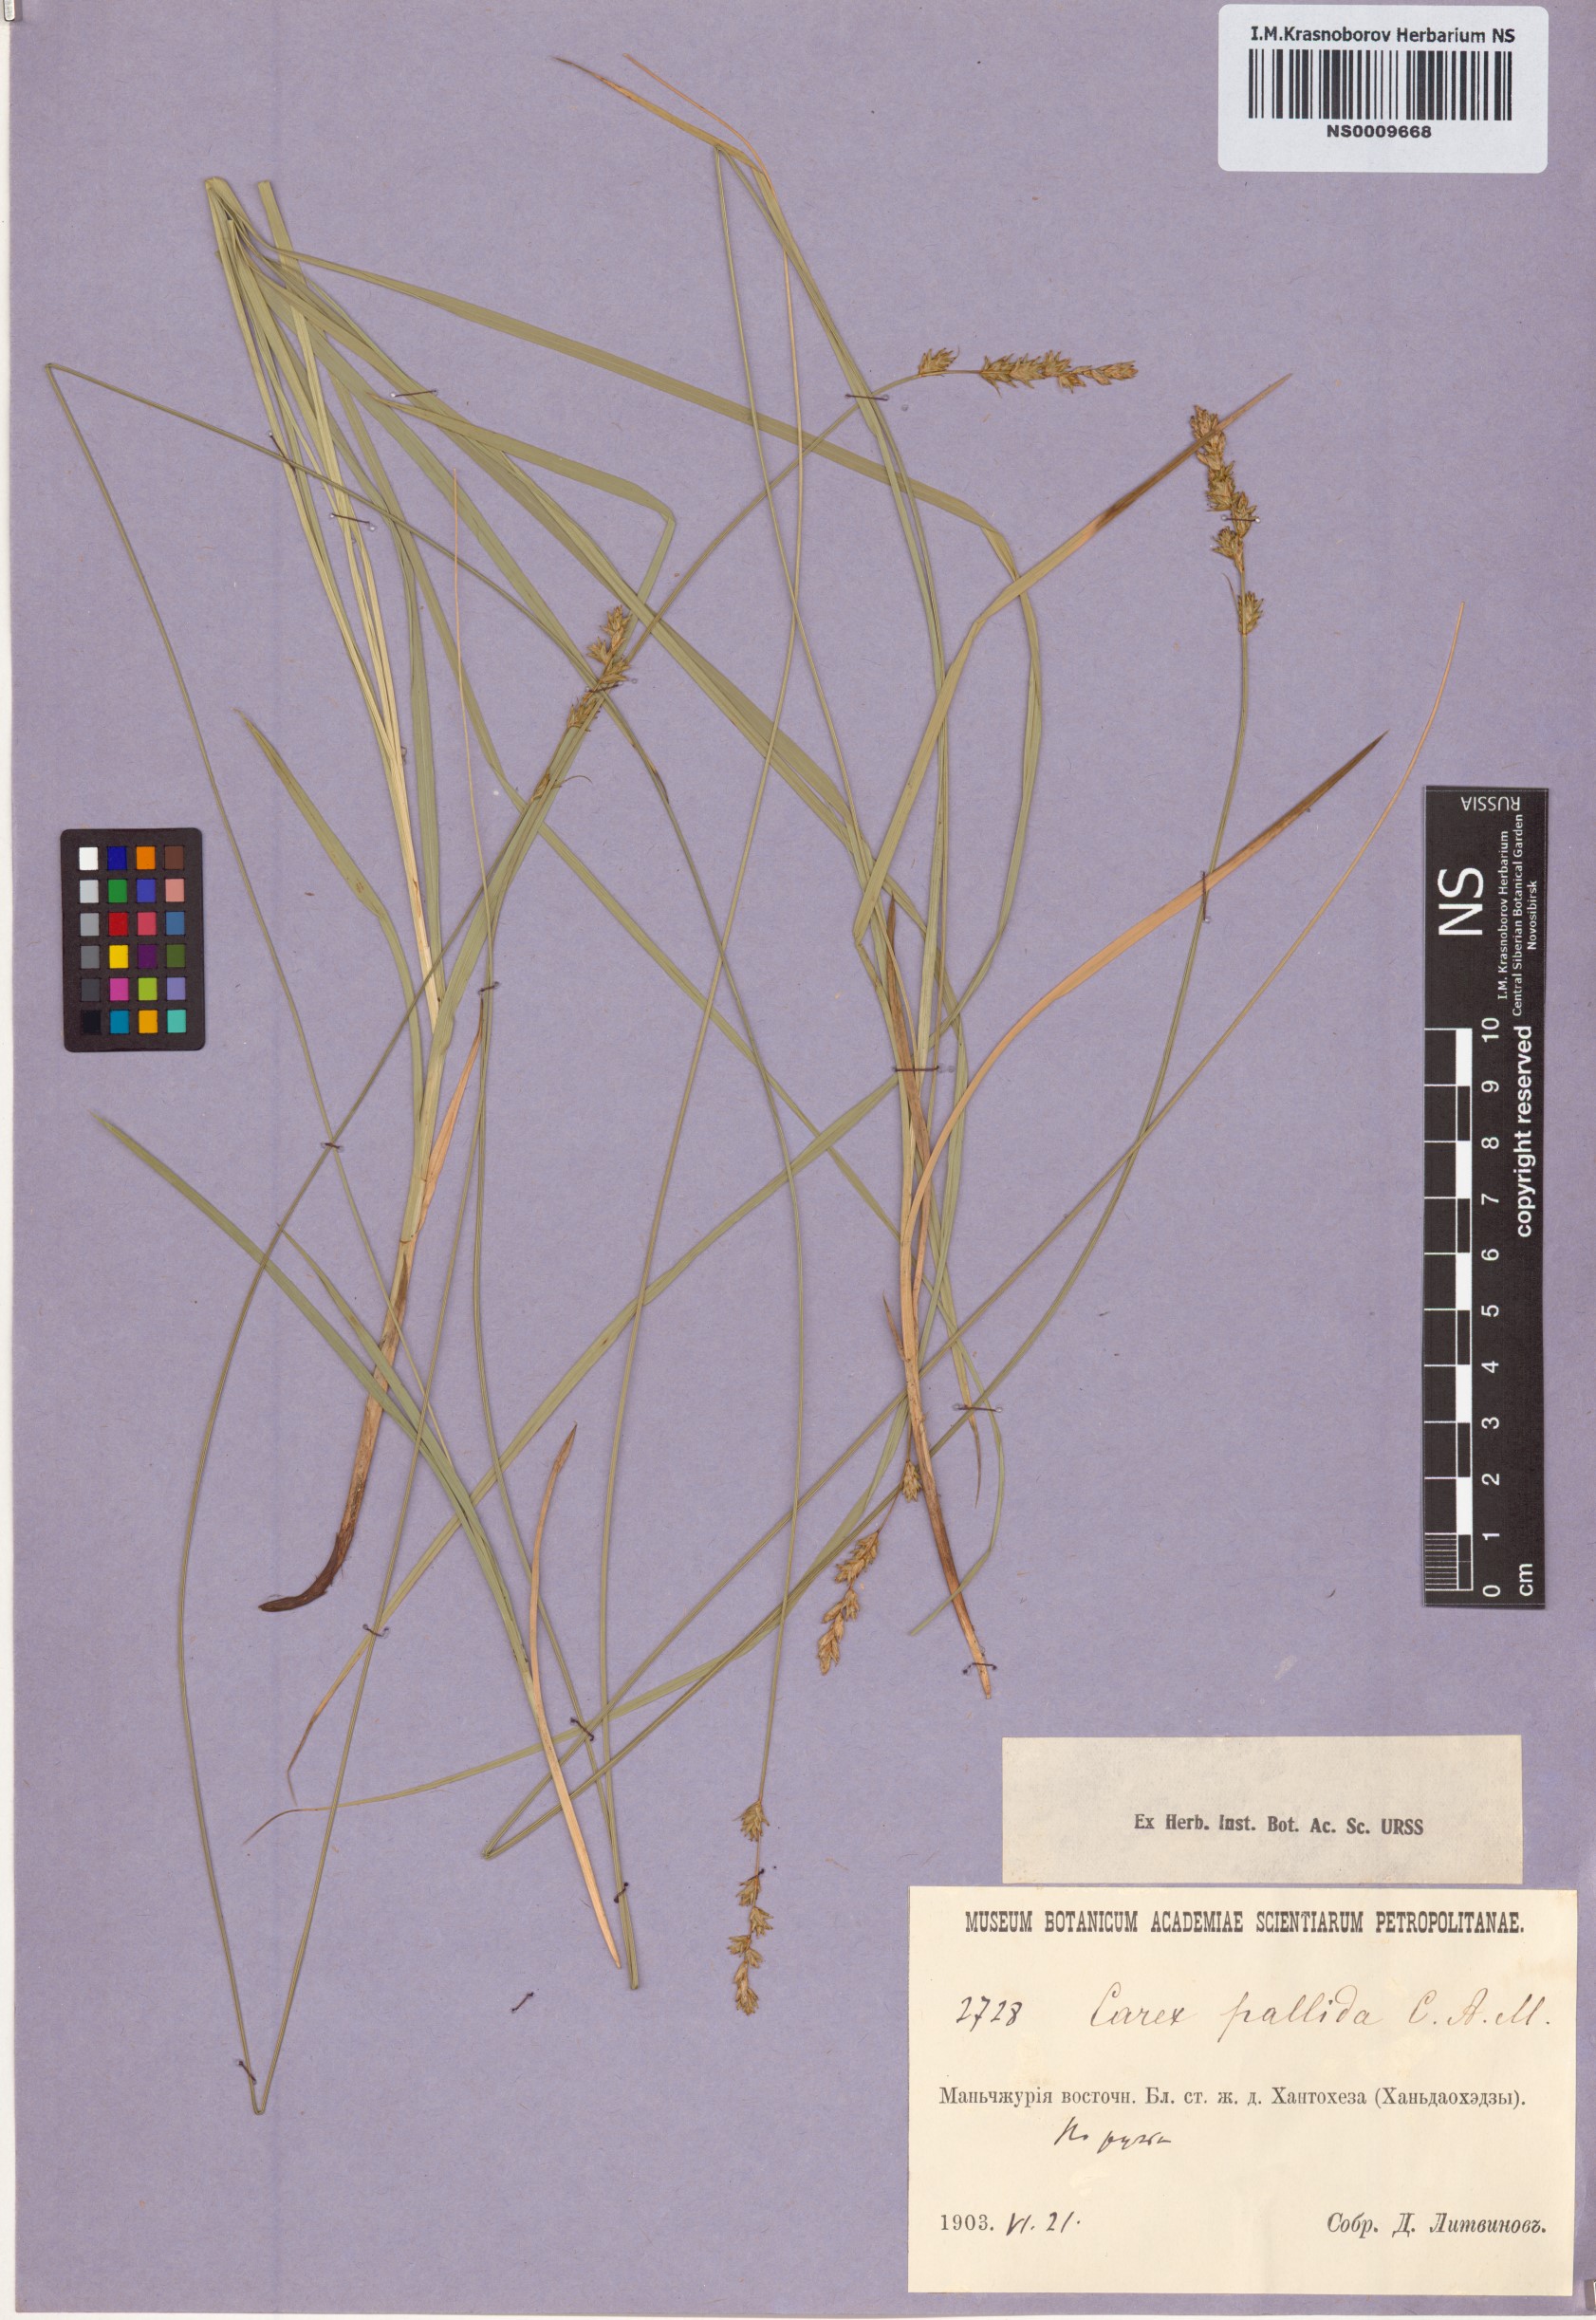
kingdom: Plantae
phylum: Tracheophyta
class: Liliopsida
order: Poales
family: Cyperaceae
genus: Carex
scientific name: Carex accrescens
